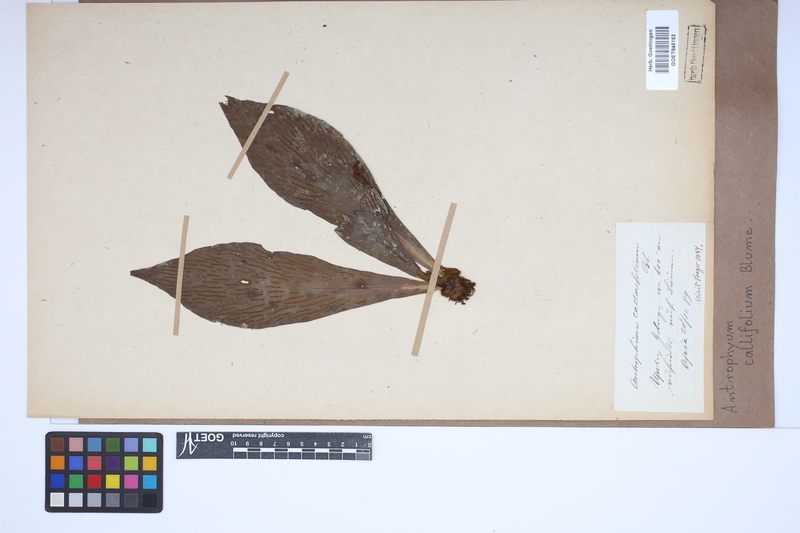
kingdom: Plantae
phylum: Tracheophyta
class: Polypodiopsida
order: Polypodiales
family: Pteridaceae
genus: Antrophyum
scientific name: Antrophyum callifolium
